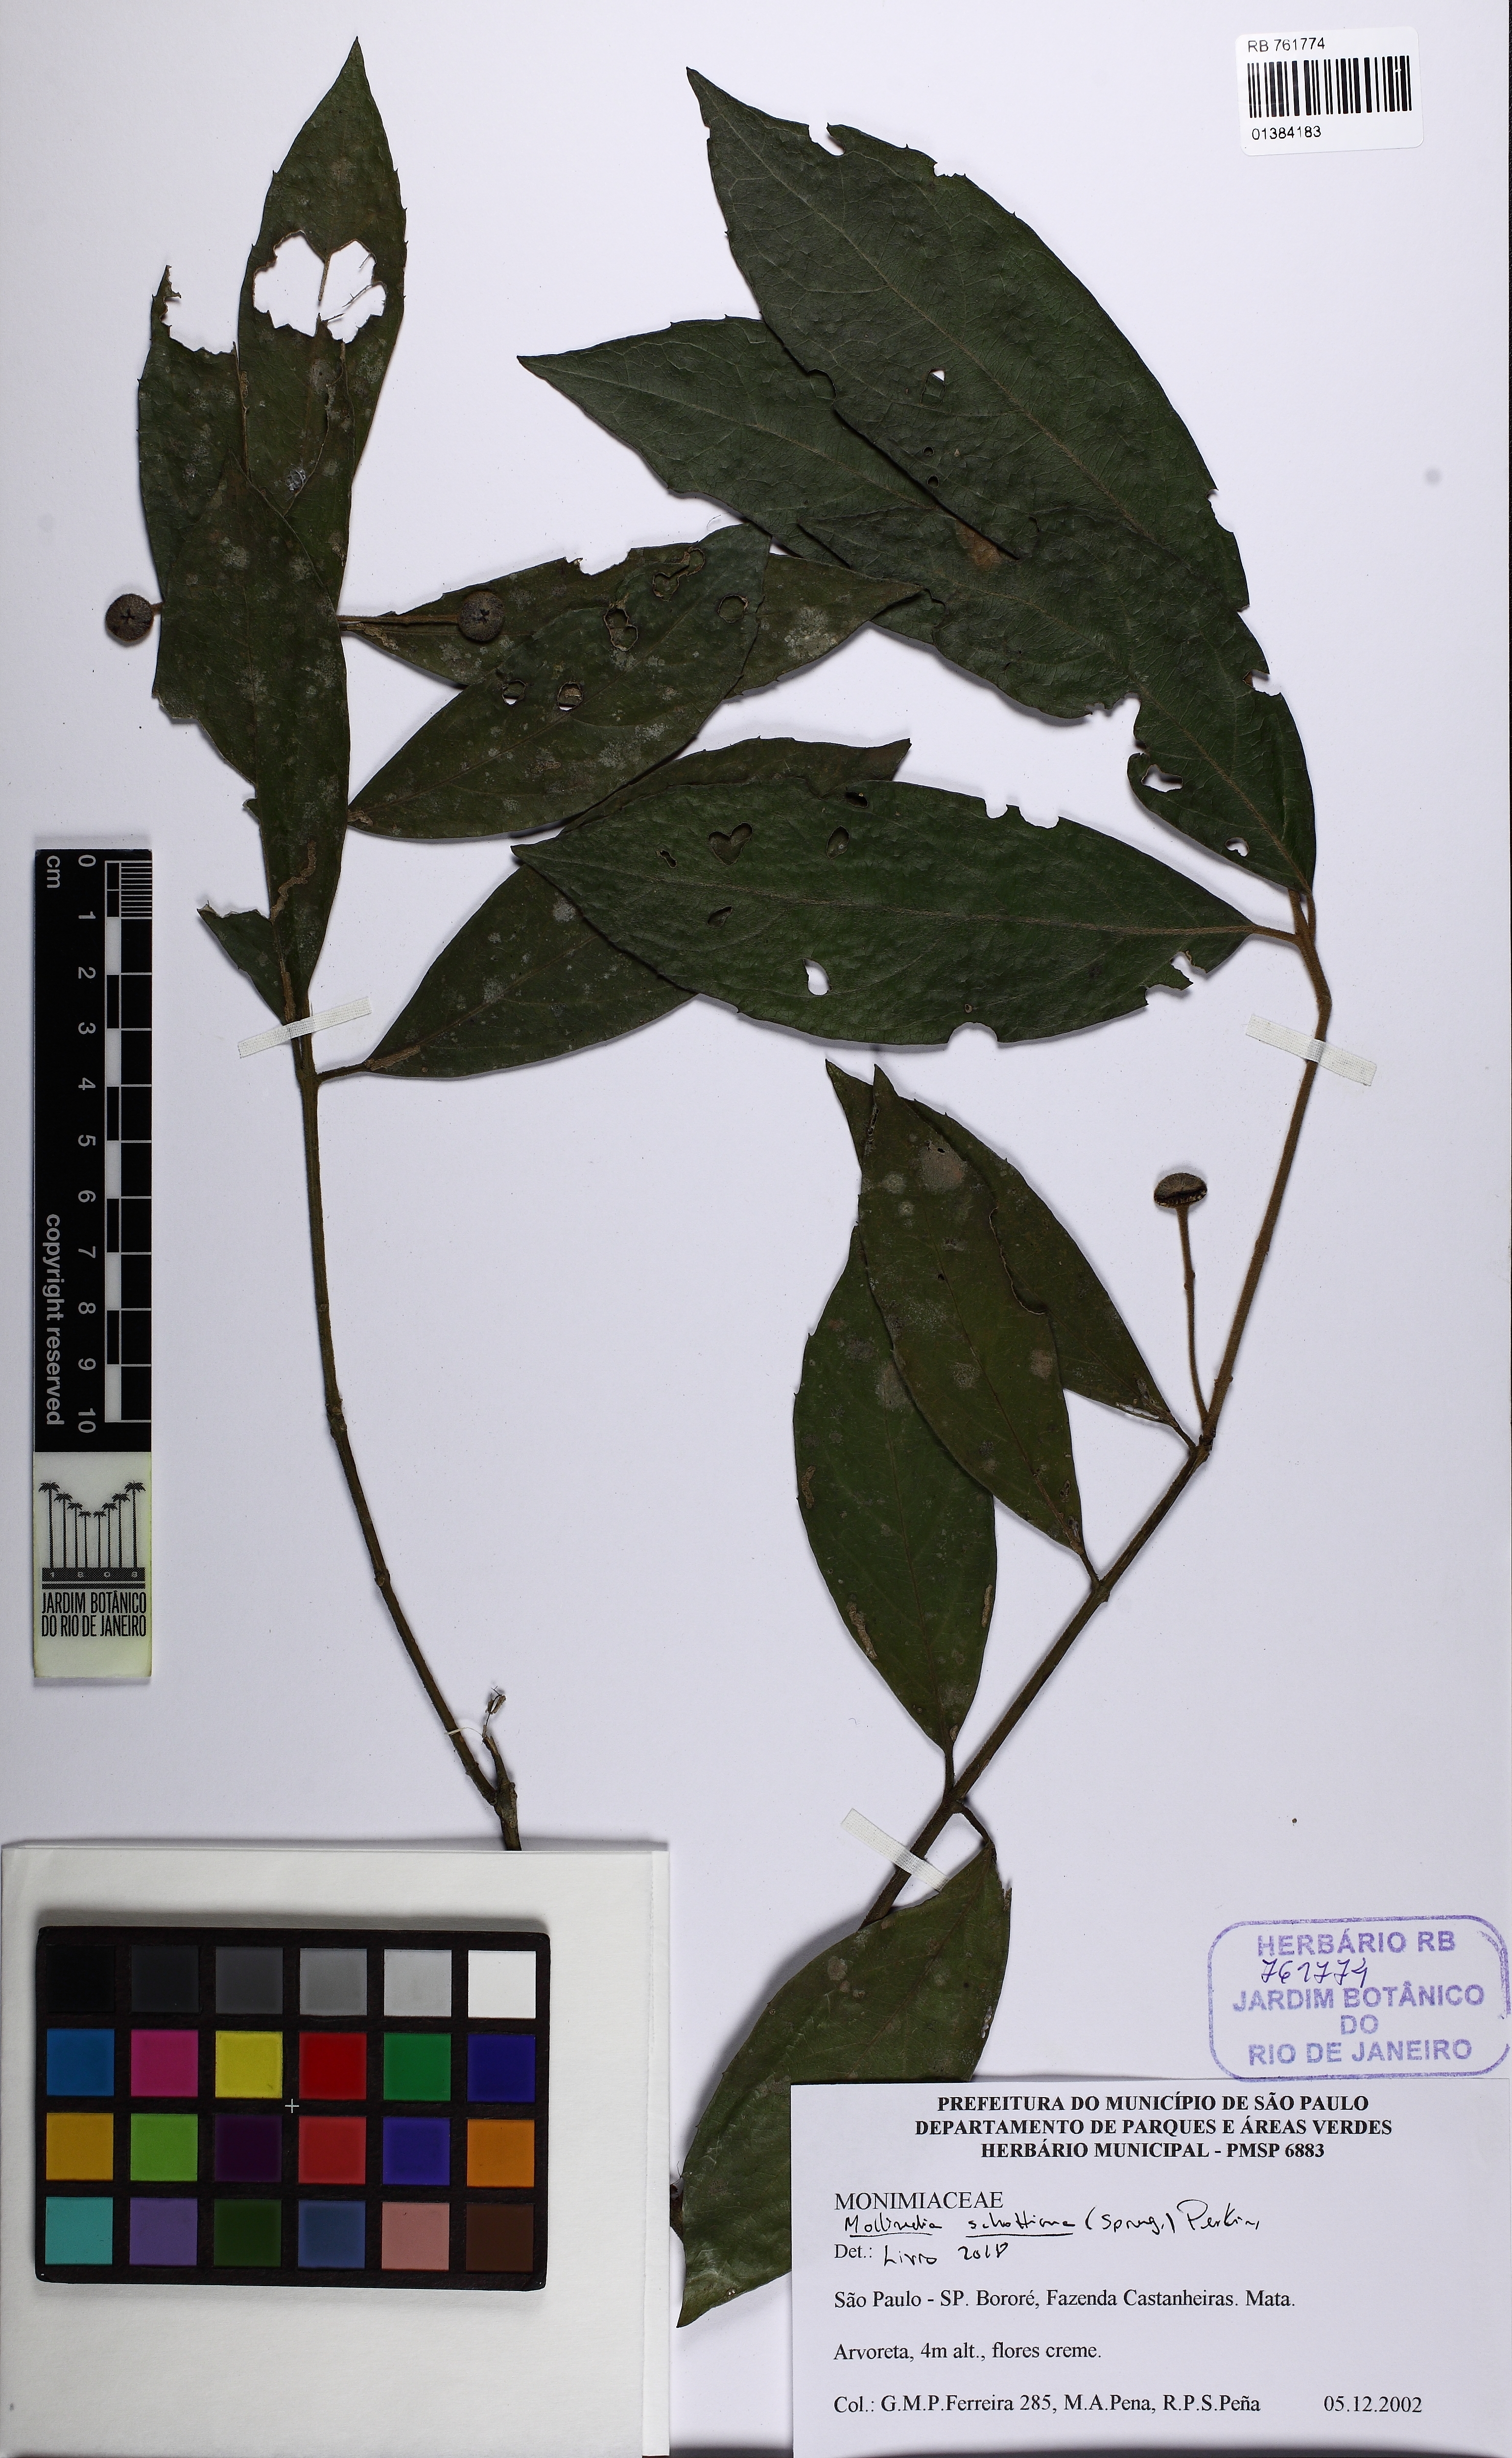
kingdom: Plantae
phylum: Tracheophyta
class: Magnoliopsida
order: Laurales
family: Monimiaceae
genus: Mollinedia
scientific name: Mollinedia umbellata
